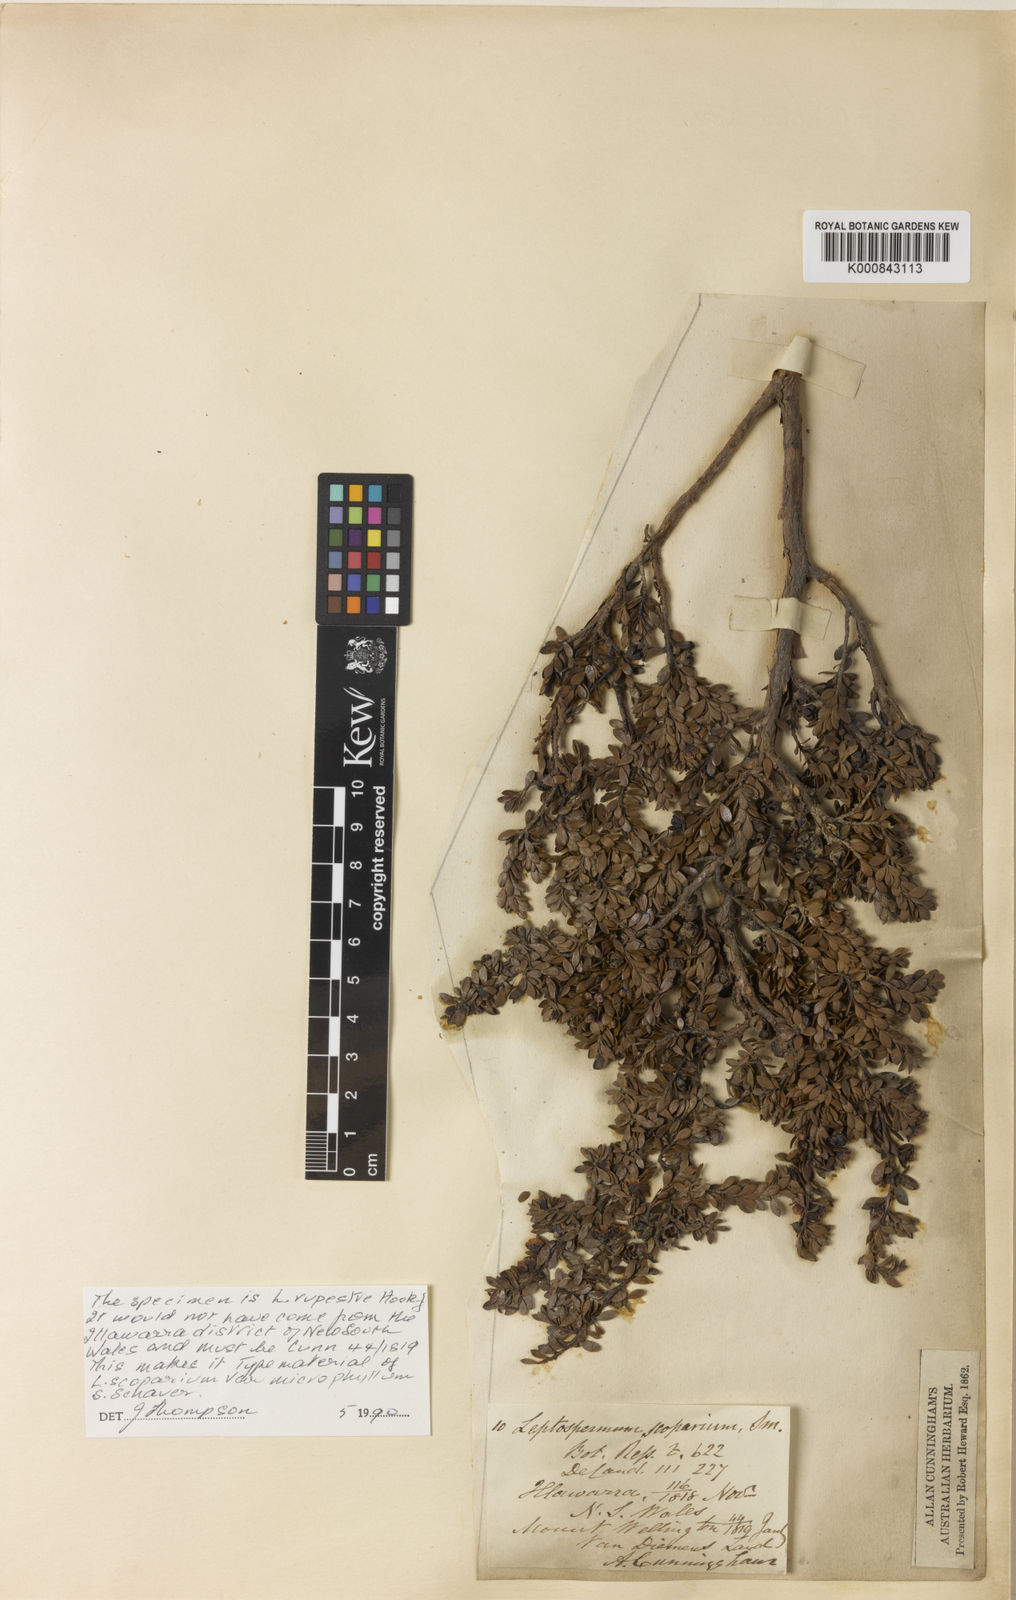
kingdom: Plantae
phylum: Tracheophyta
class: Magnoliopsida
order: Myrtales
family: Myrtaceae
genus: Leptospermum
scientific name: Leptospermum rupestre
